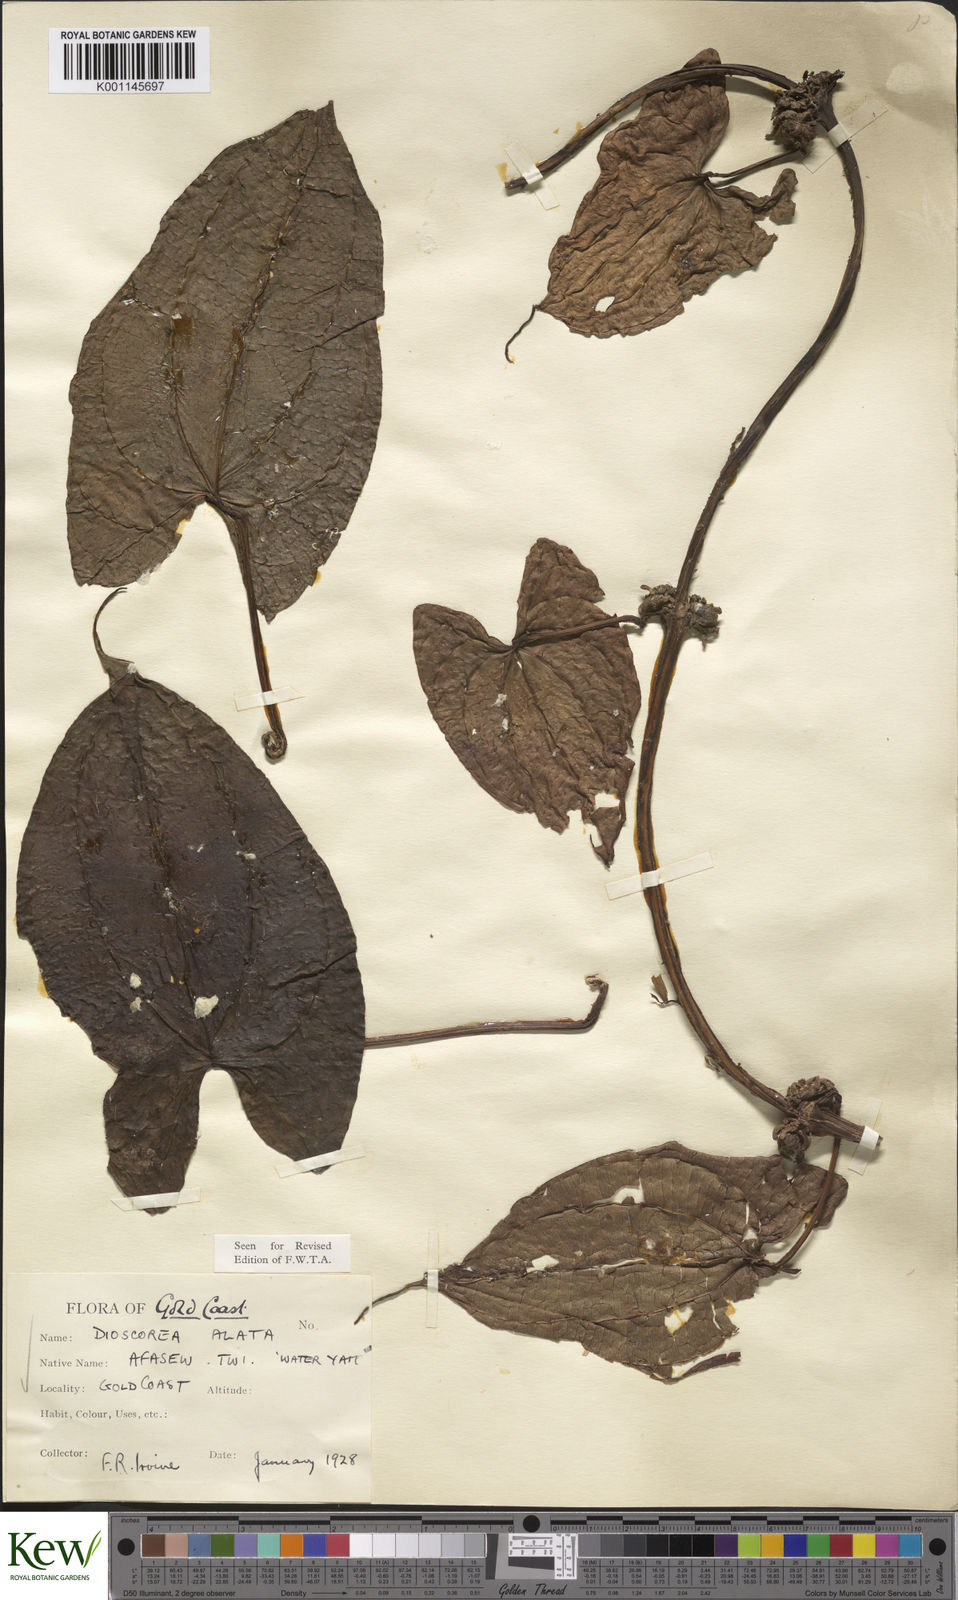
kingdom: Plantae
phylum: Tracheophyta
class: Liliopsida
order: Dioscoreales
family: Dioscoreaceae
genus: Dioscorea
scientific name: Dioscorea alata
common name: Water yam
